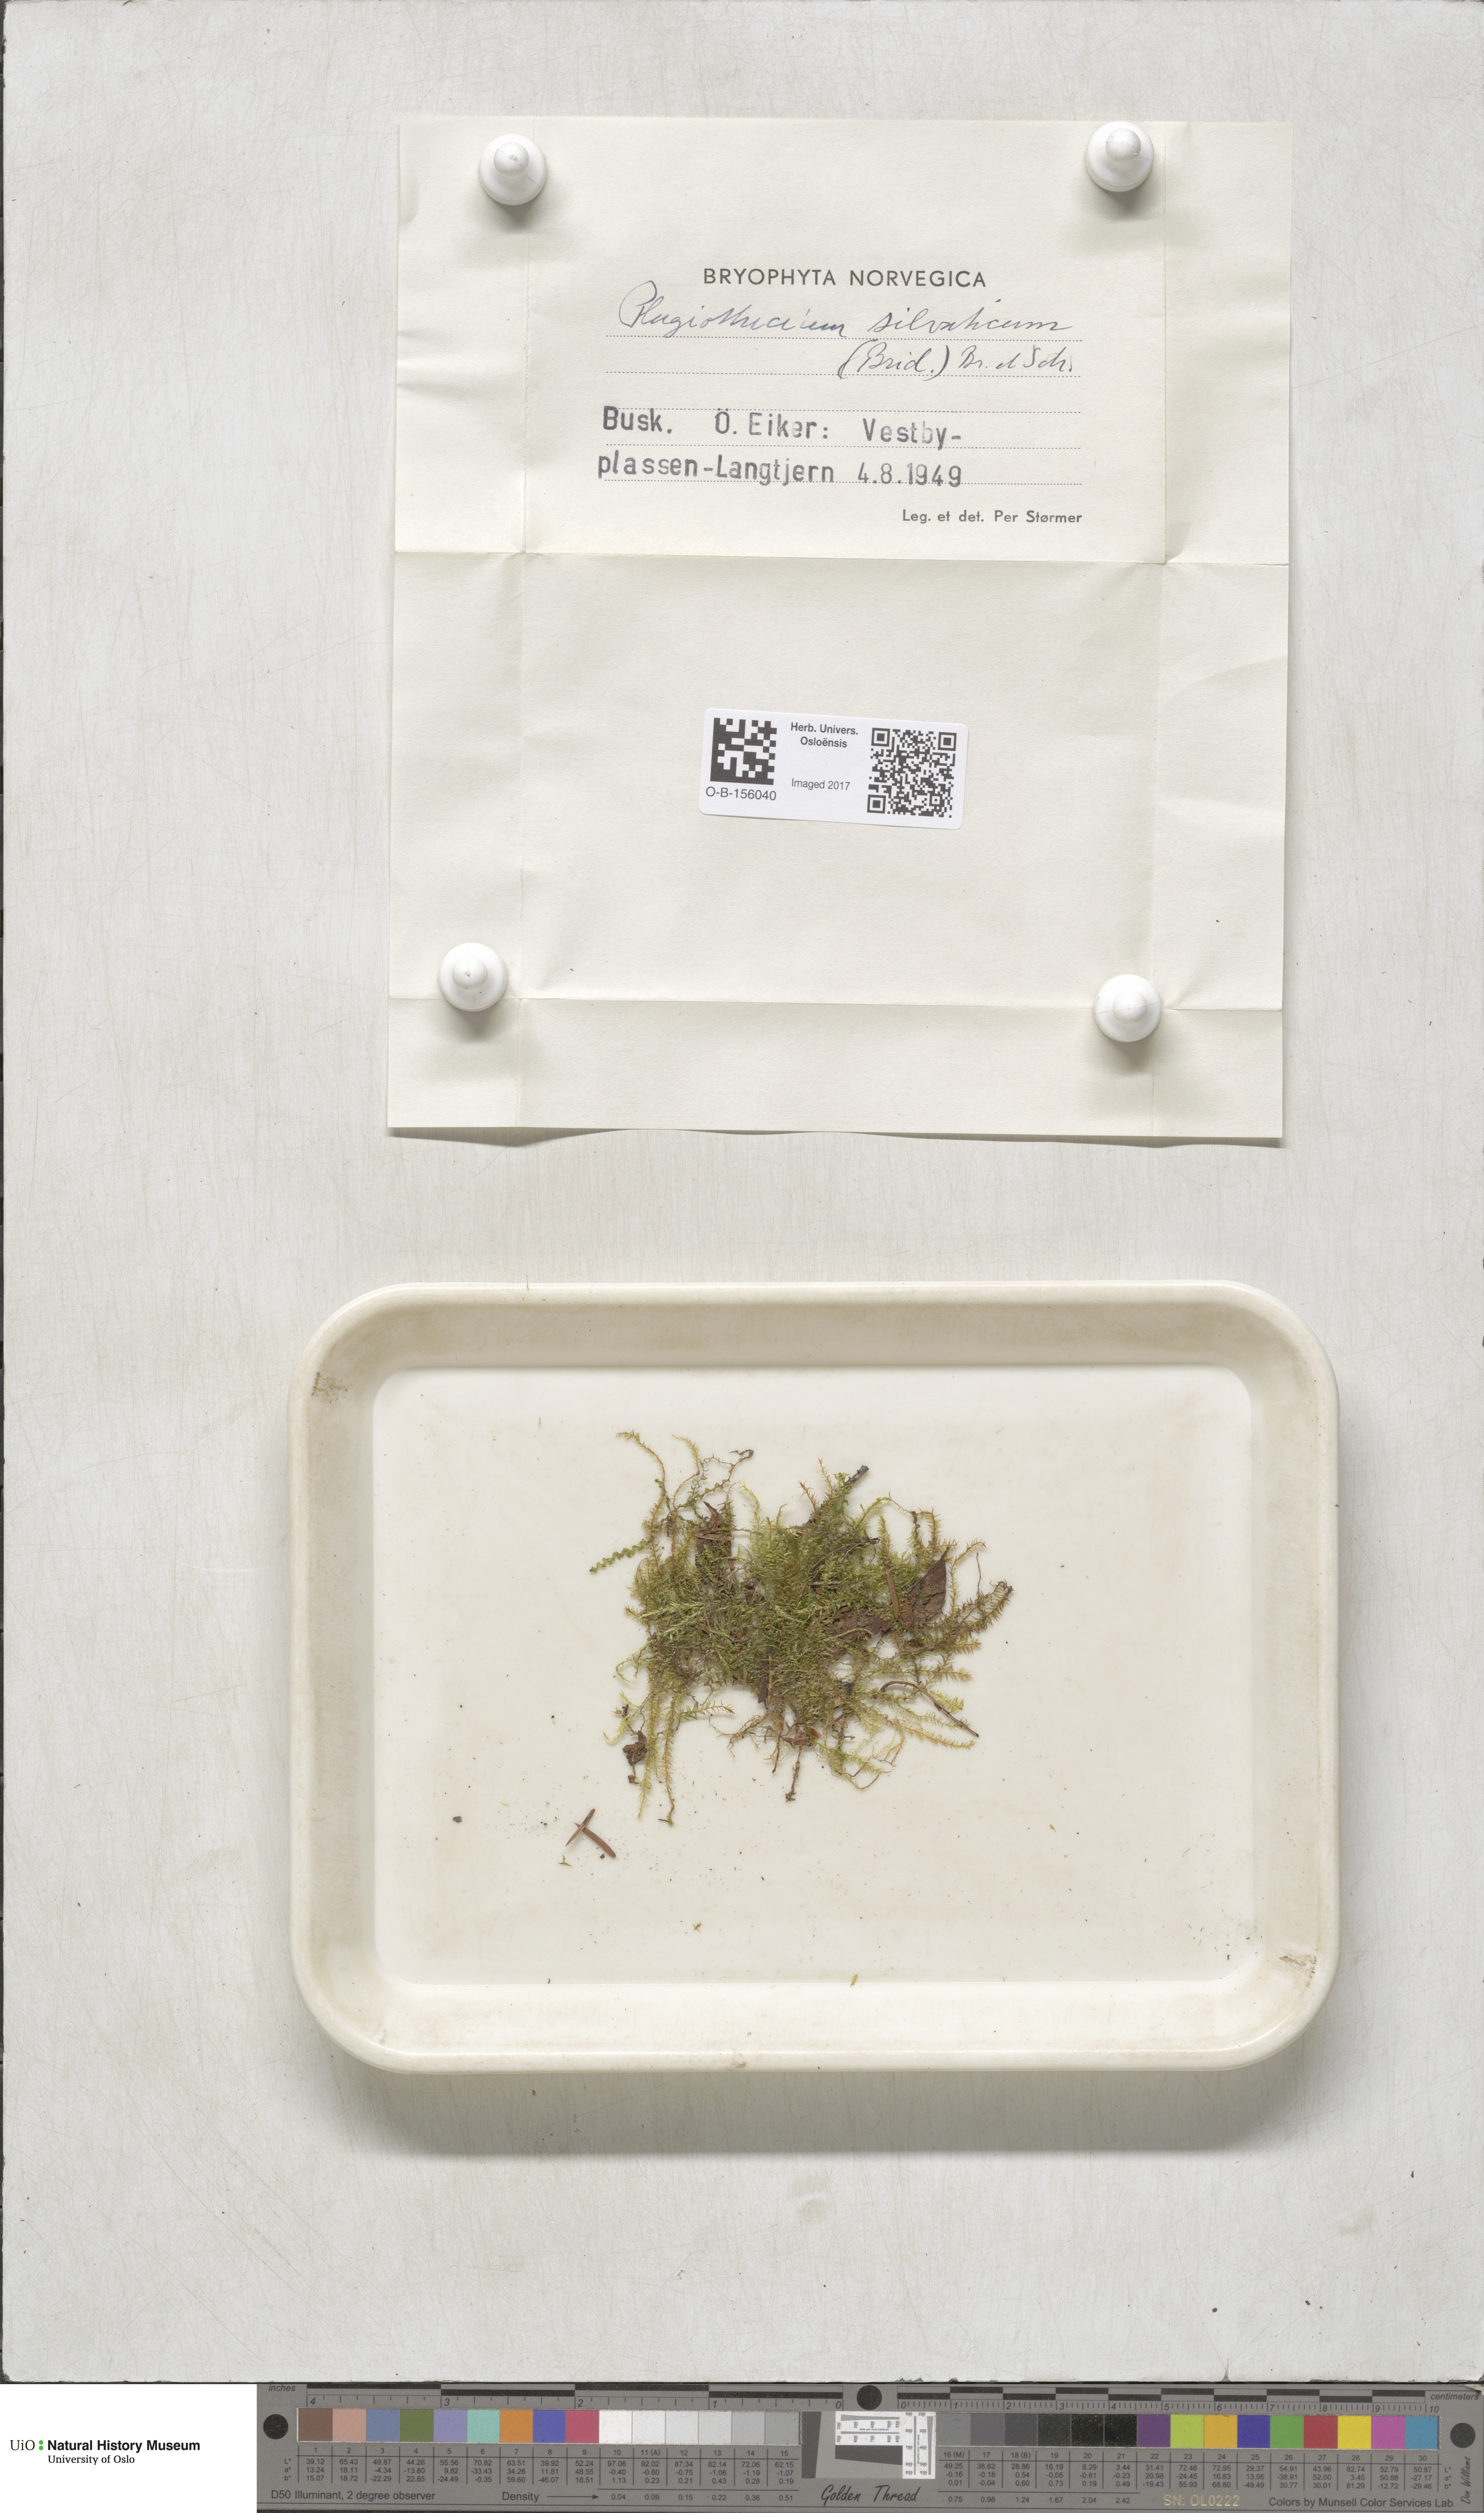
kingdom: Plantae
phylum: Bryophyta
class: Bryopsida
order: Hypnales
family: Plagiotheciaceae
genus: Plagiothecium
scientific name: Plagiothecium nemorale
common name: Woodsy silk-moss
